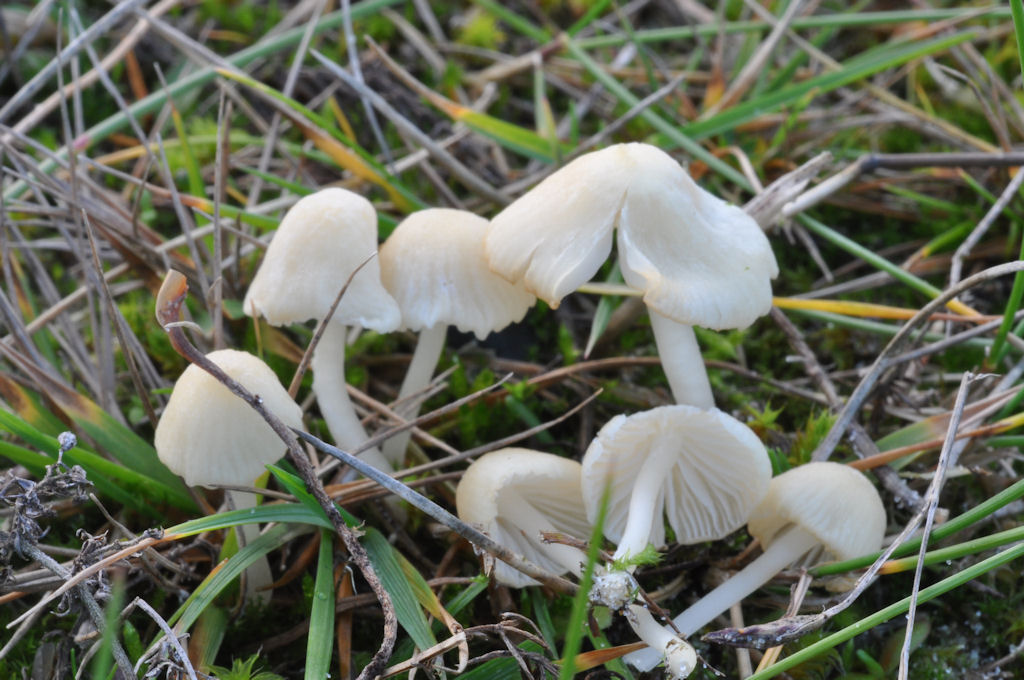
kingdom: Fungi
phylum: Basidiomycota
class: Agaricomycetes
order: Agaricales
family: Mycenaceae
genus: Atheniella
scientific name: Atheniella flavoalba
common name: gulhvid huesvamp
